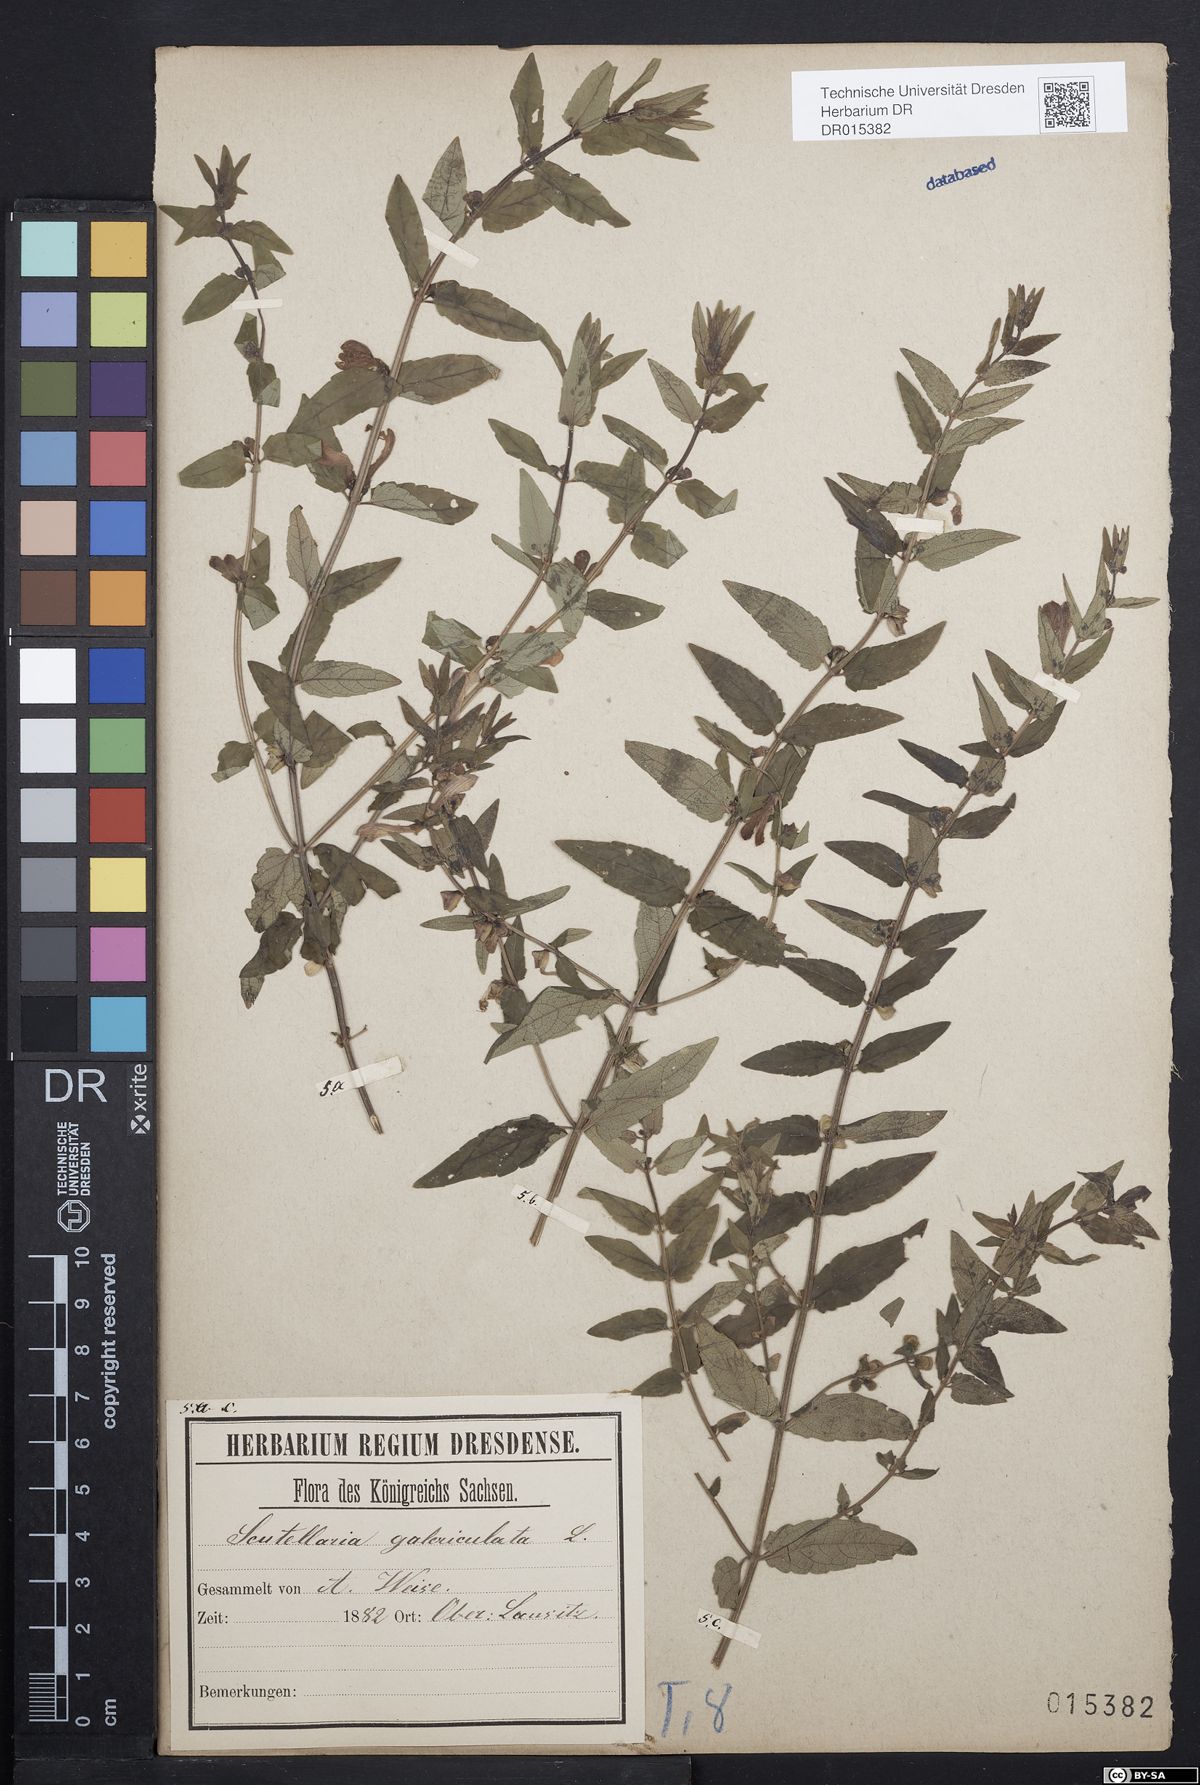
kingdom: Plantae
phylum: Tracheophyta
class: Magnoliopsida
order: Lamiales
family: Lamiaceae
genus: Scutellaria
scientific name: Scutellaria galericulata
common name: Skullcap
